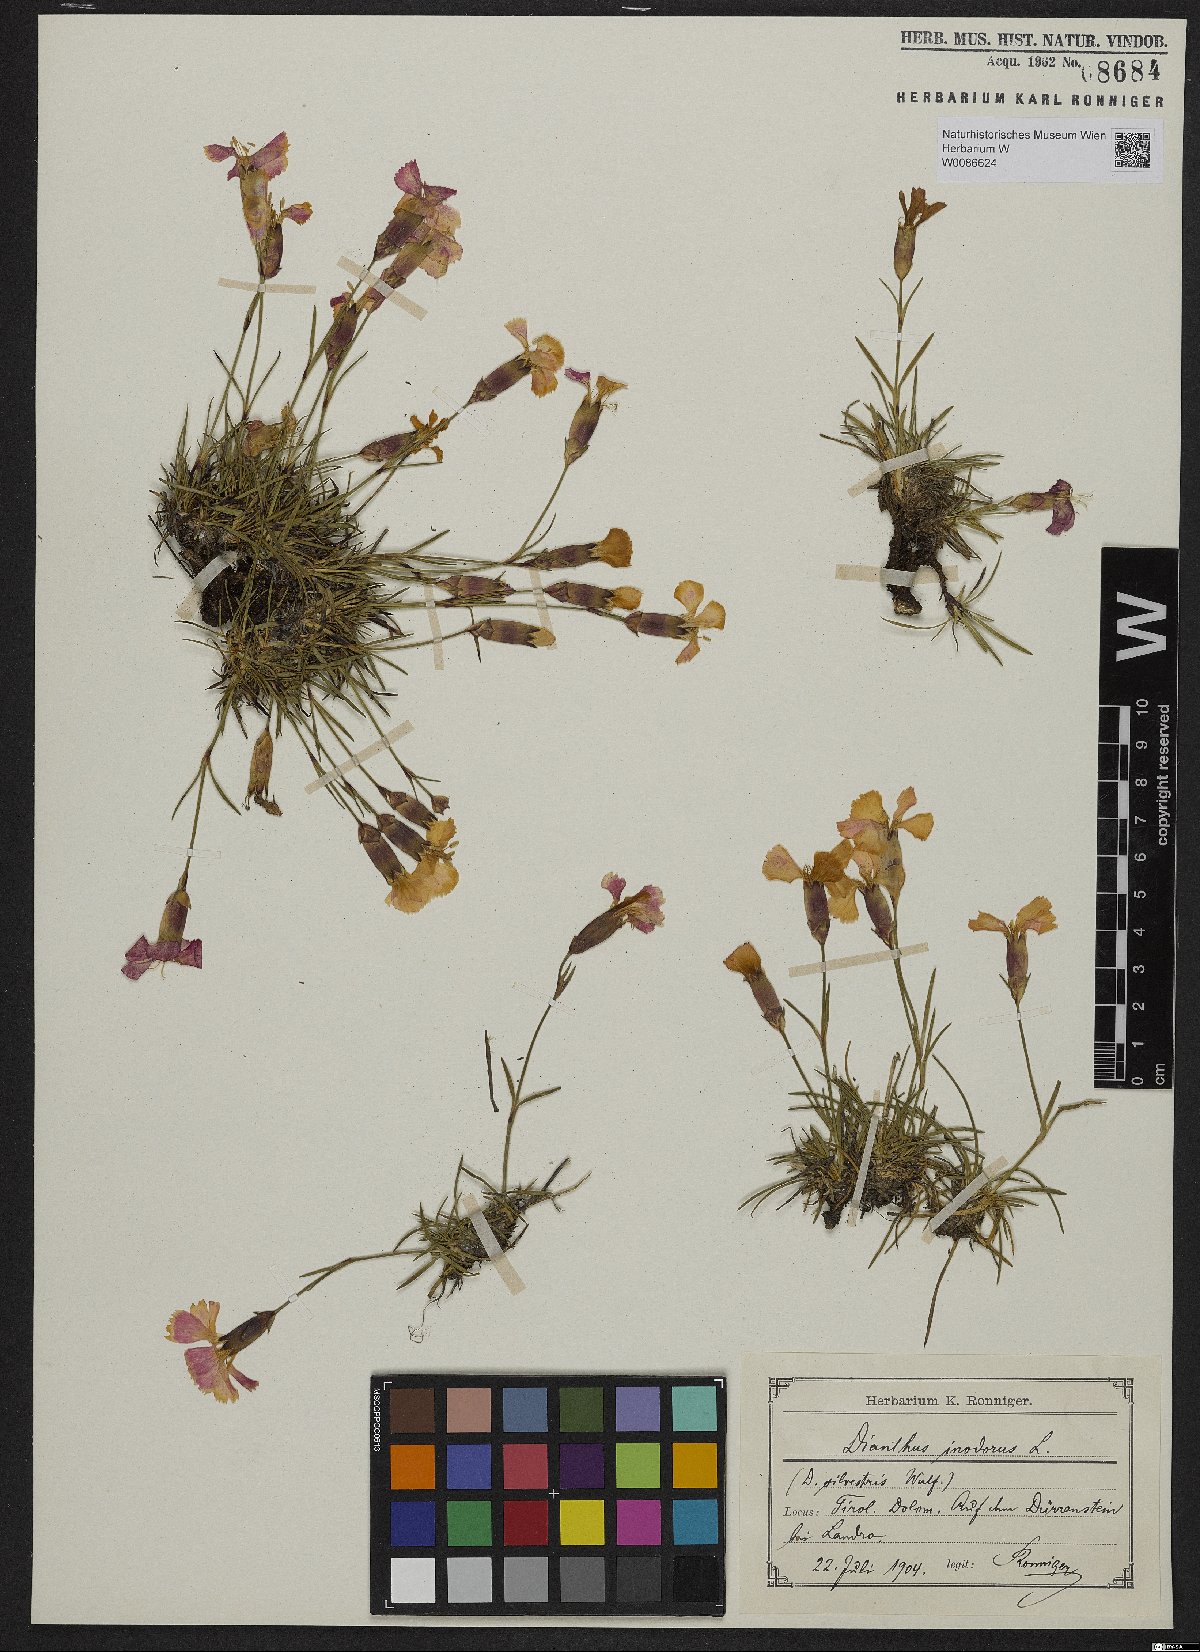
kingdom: Plantae
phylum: Tracheophyta
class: Magnoliopsida
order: Caryophyllales
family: Caryophyllaceae
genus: Dianthus
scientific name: Dianthus sylvestris
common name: Wood pink
